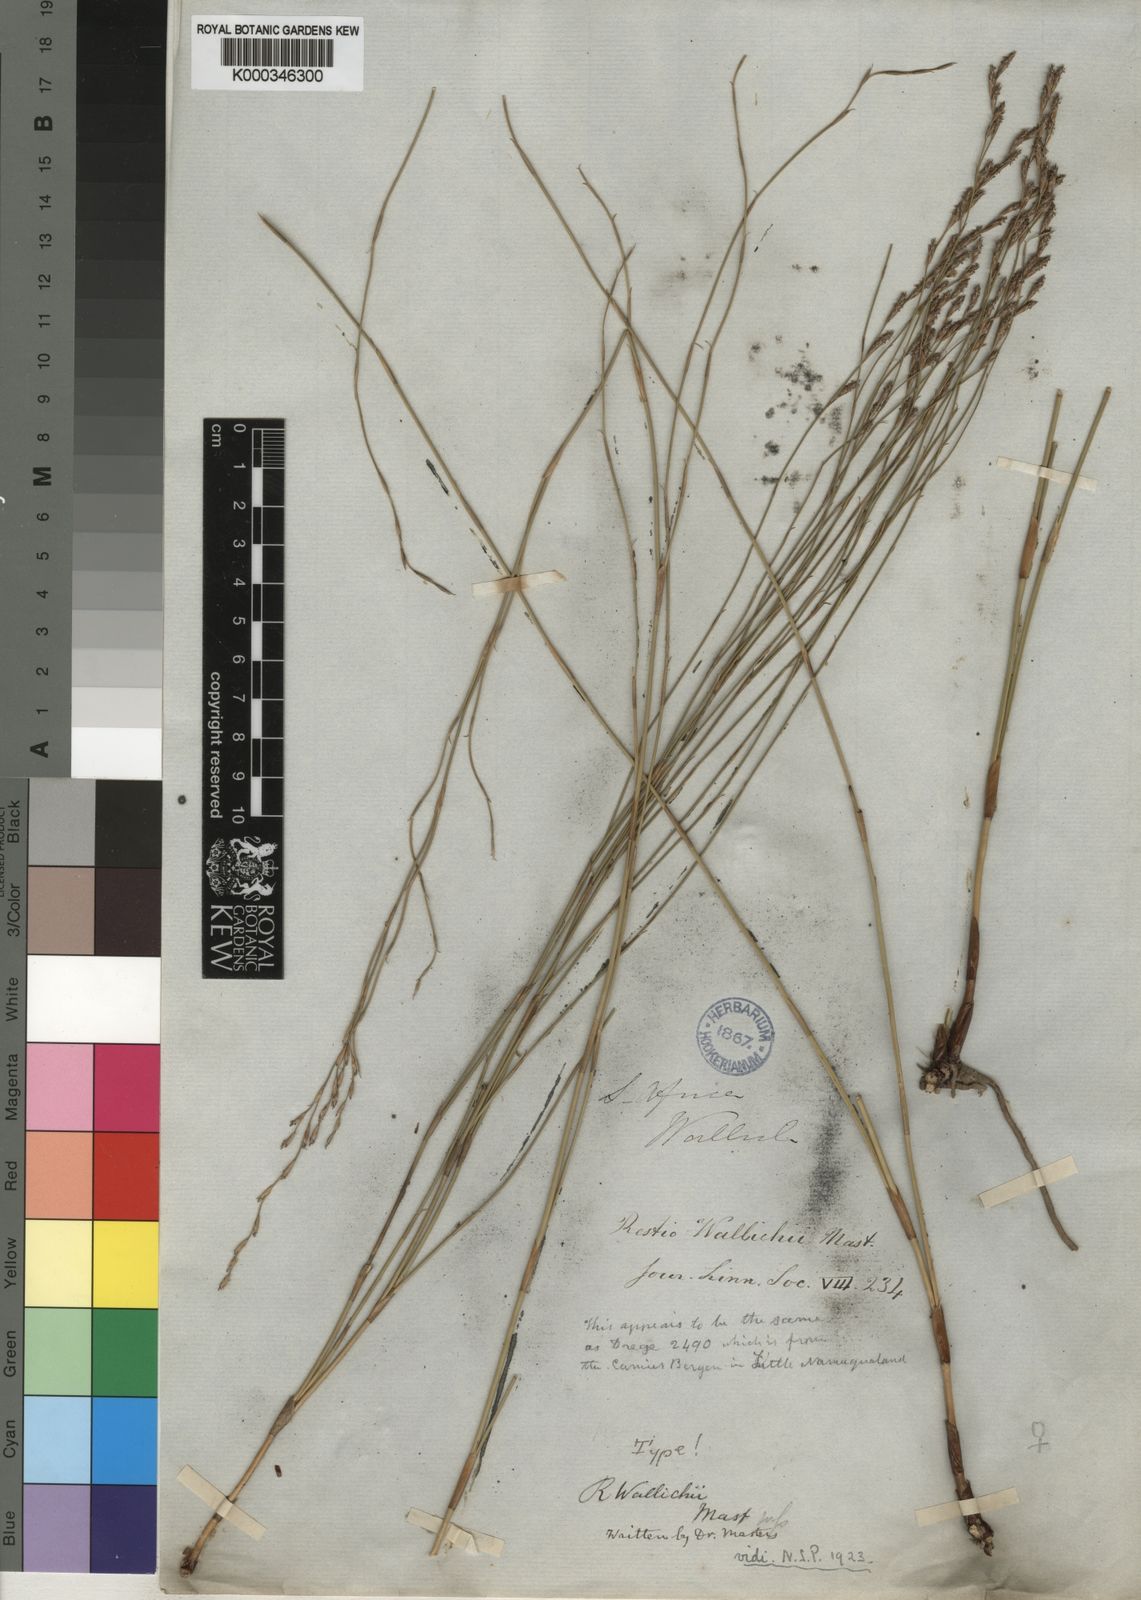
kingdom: Plantae
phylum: Tracheophyta
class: Liliopsida
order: Poales
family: Restionaceae
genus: Restio
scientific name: Restio wallichii
